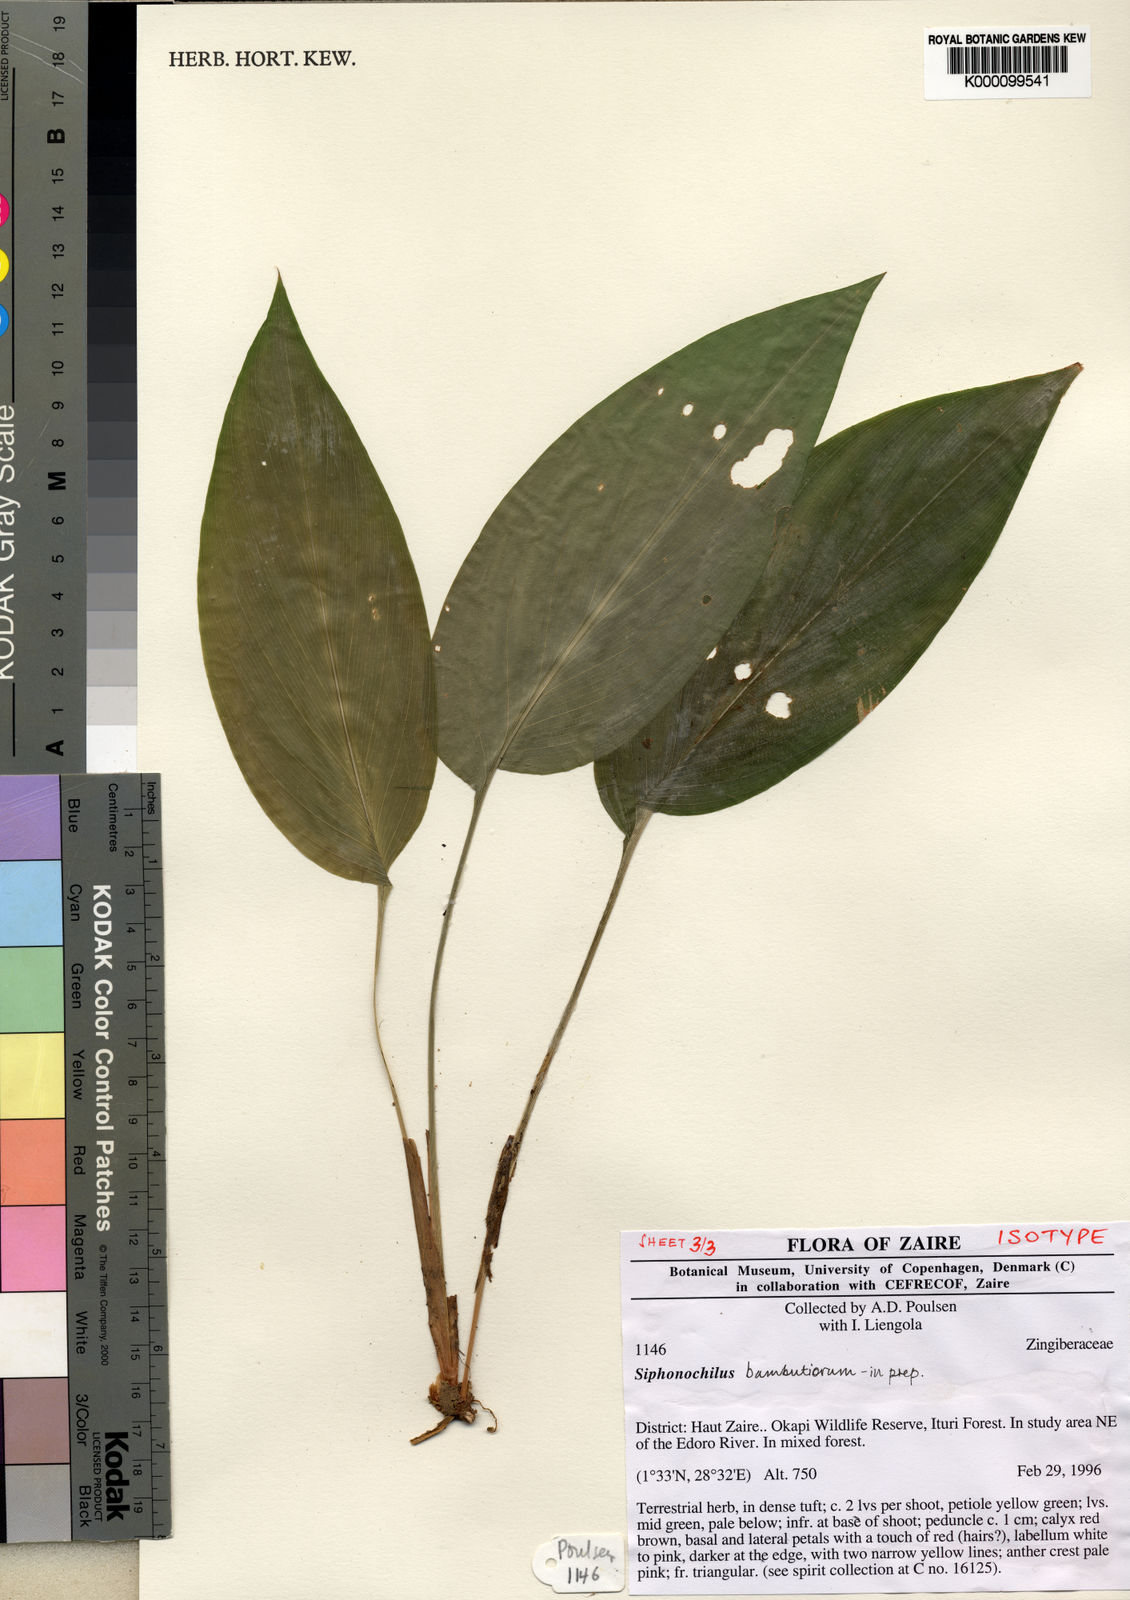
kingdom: Plantae
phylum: Tracheophyta
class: Liliopsida
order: Zingiberales
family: Zingiberaceae
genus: Siphonochilus
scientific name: Siphonochilus bambutiorum
